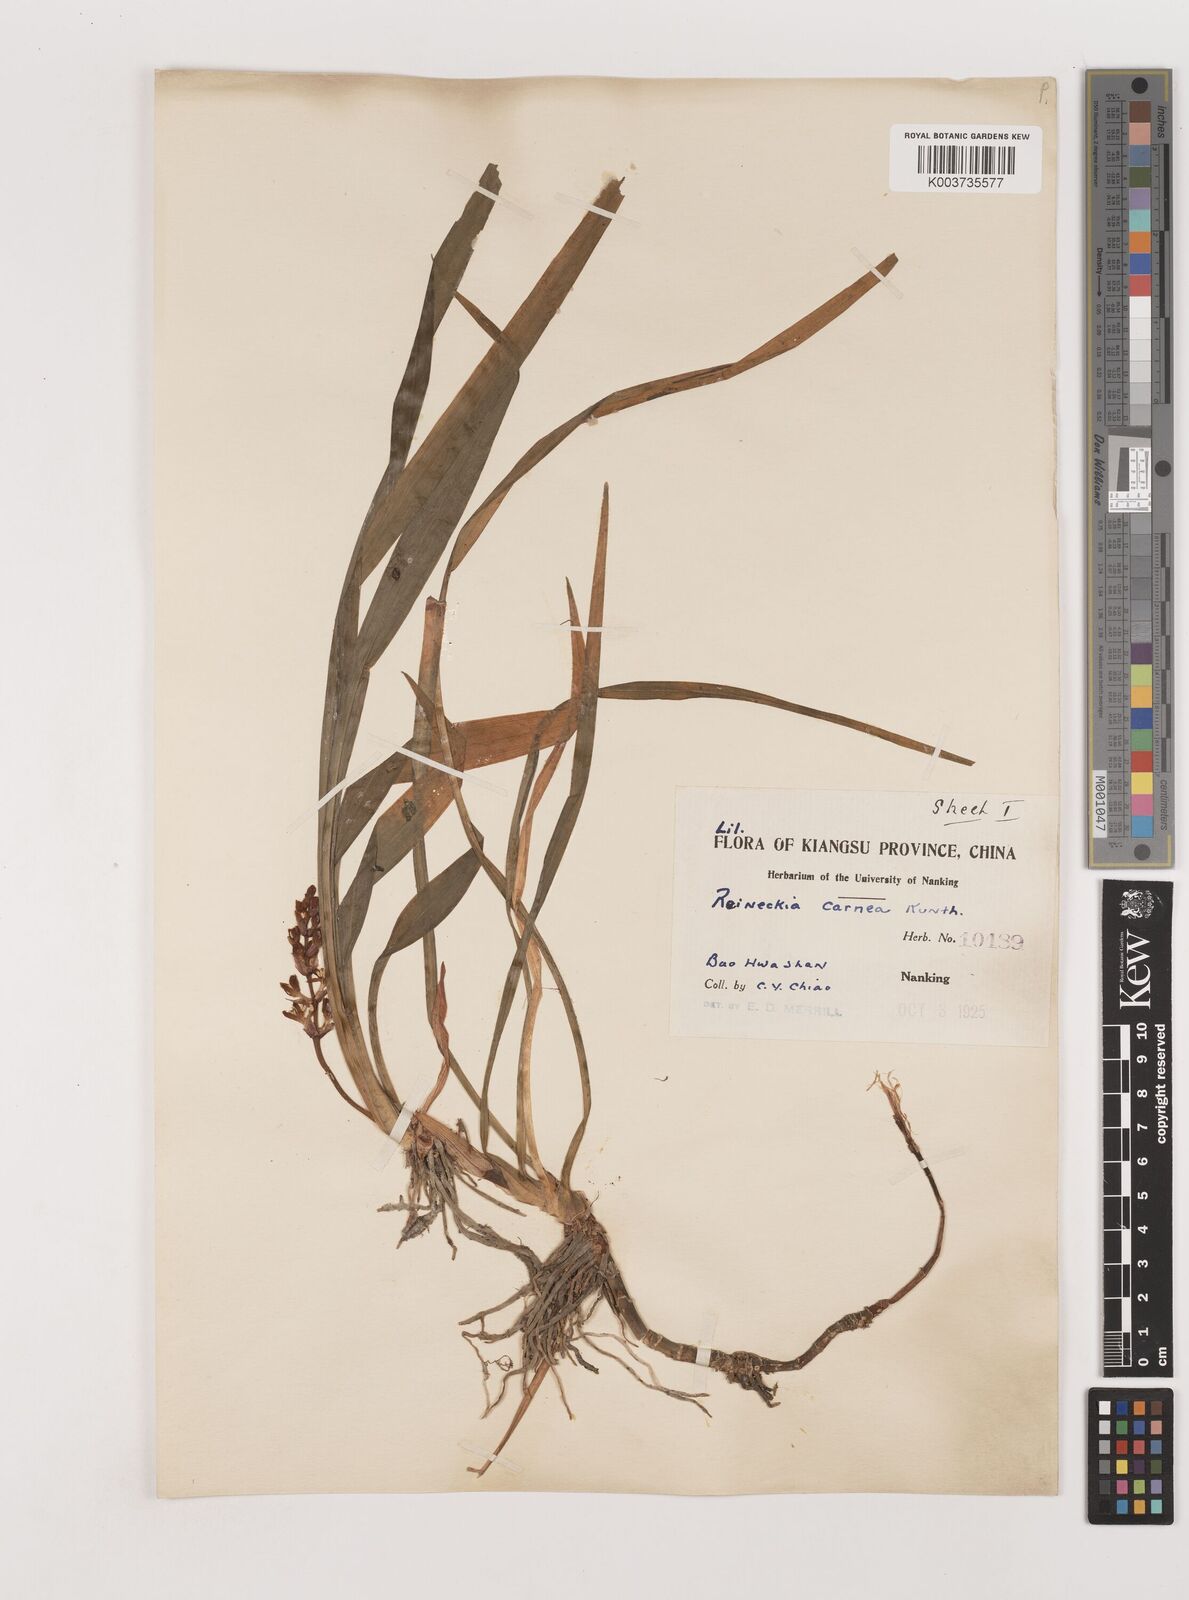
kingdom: Plantae
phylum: Tracheophyta
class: Liliopsida
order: Asparagales
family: Asparagaceae
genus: Reineckea
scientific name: Reineckea carnea
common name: Reineckea
